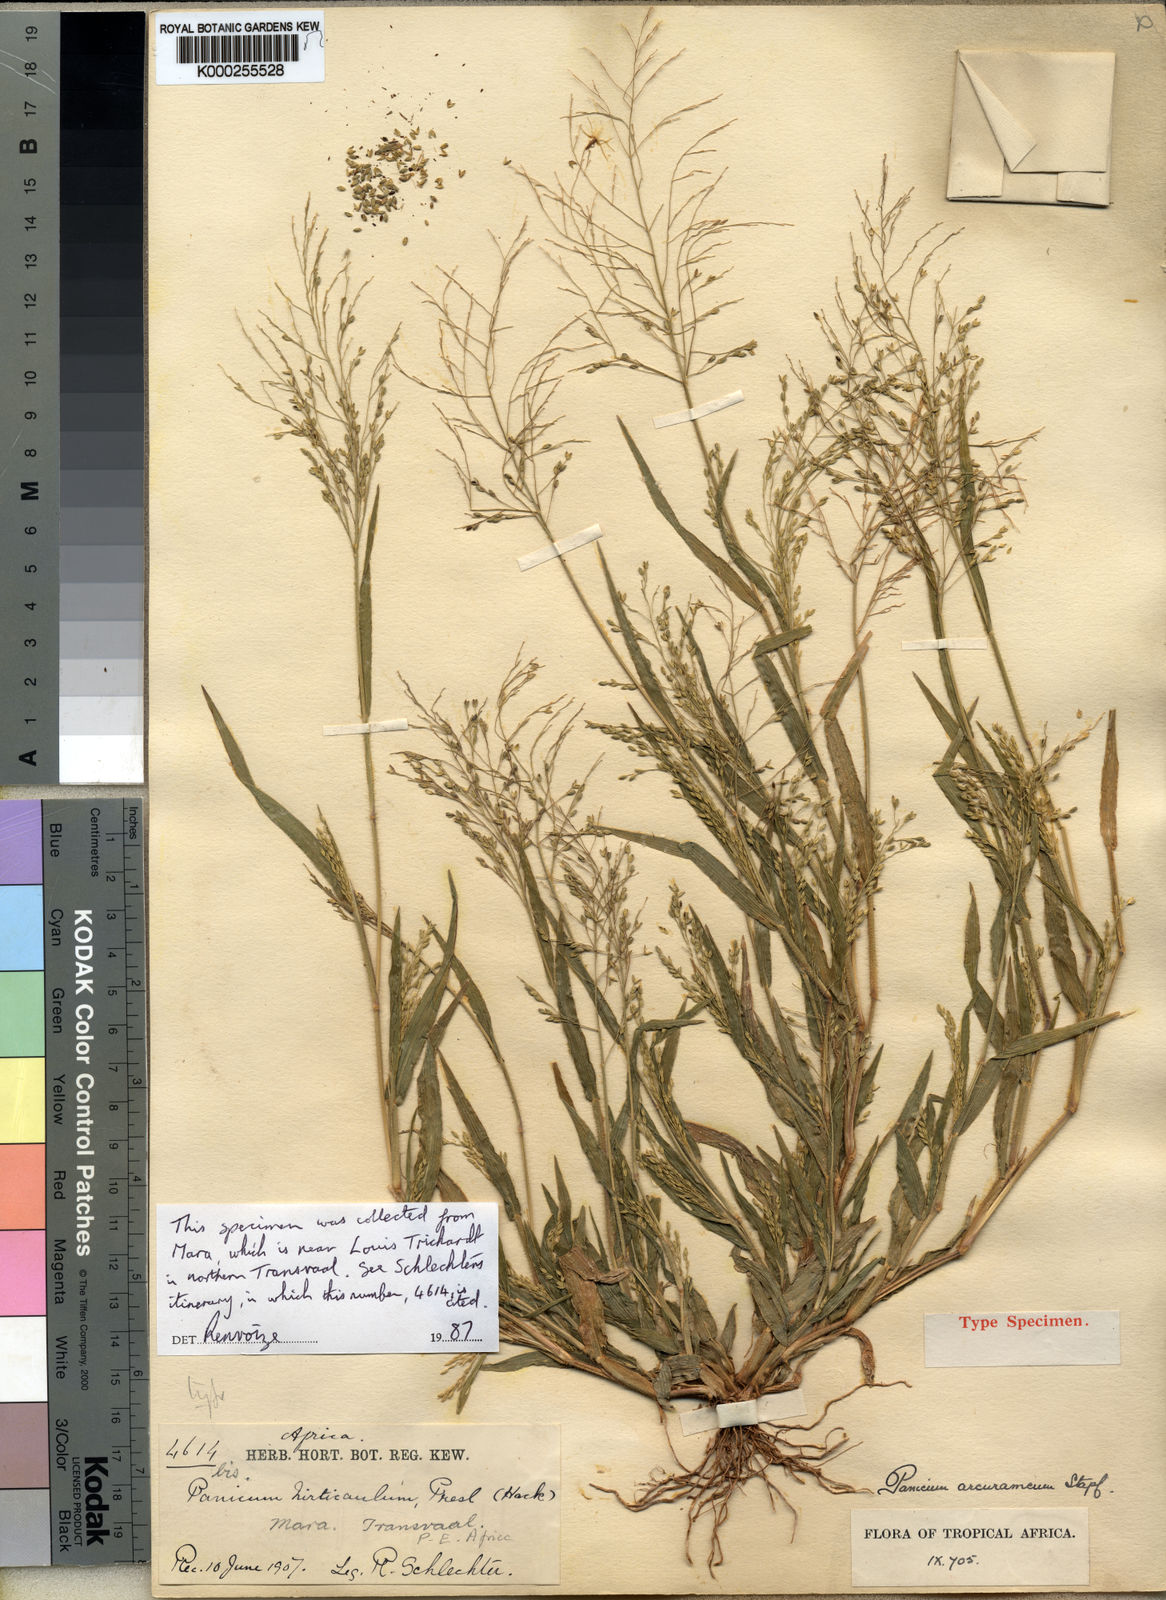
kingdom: Plantae
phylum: Tracheophyta
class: Liliopsida
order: Poales
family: Poaceae
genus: Panicum
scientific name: Panicum arcurameum
